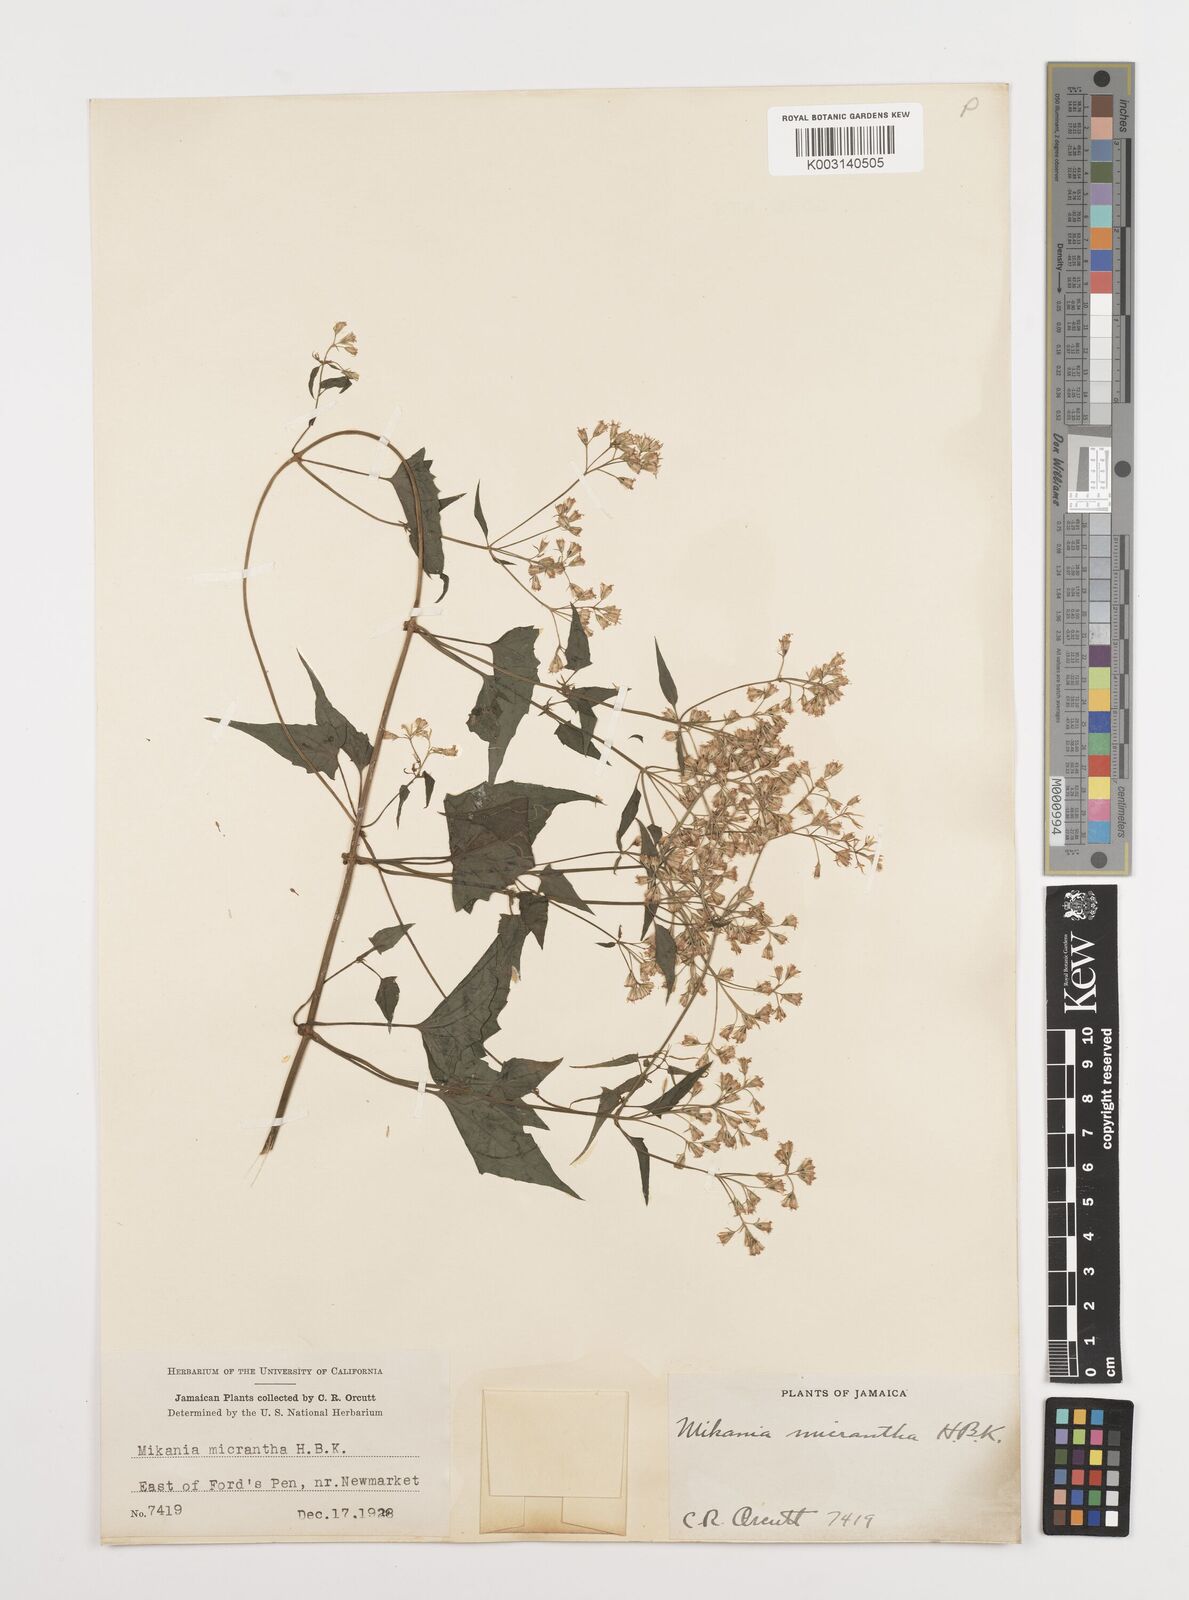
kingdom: Plantae
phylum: Tracheophyta
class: Magnoliopsida
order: Asterales
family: Asteraceae
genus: Mikania
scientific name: Mikania micrantha
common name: Mile-a-minute
